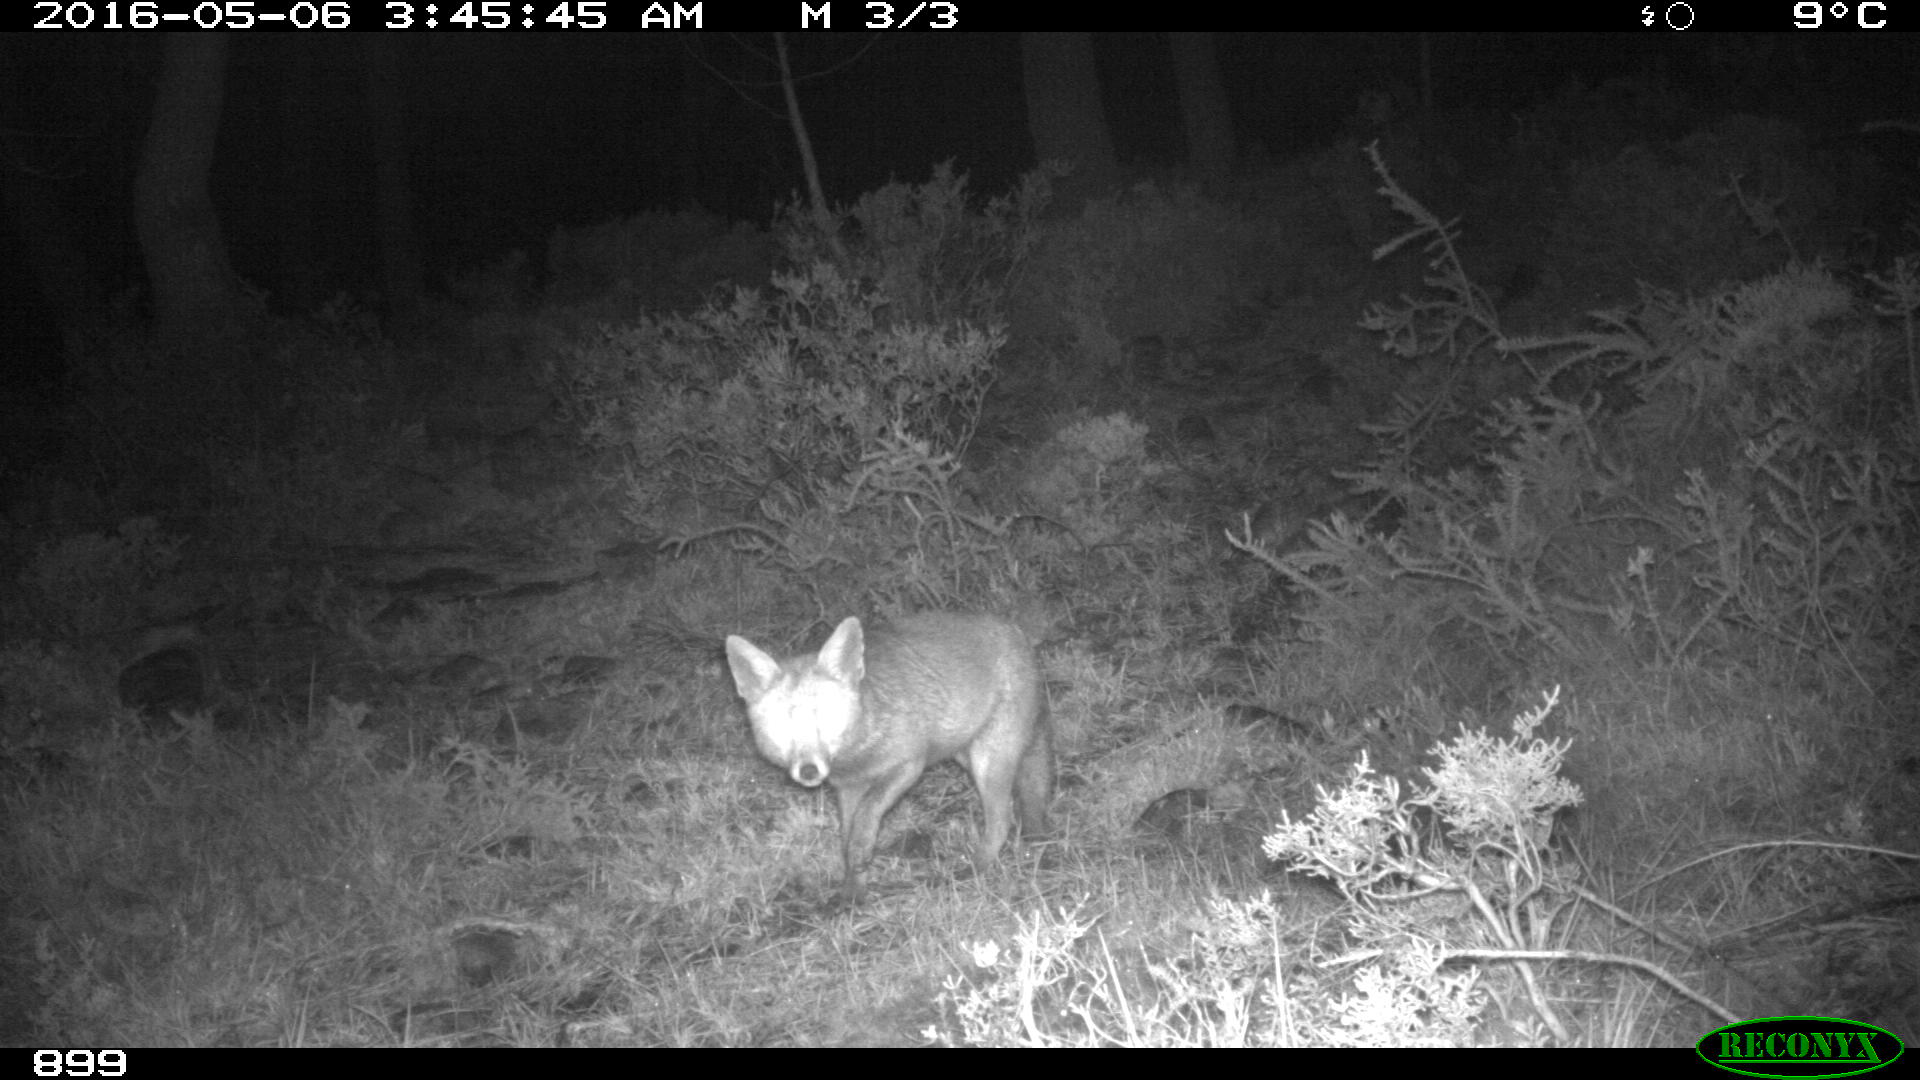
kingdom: Animalia
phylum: Chordata
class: Mammalia
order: Carnivora
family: Canidae
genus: Vulpes
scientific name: Vulpes vulpes
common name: Red fox
